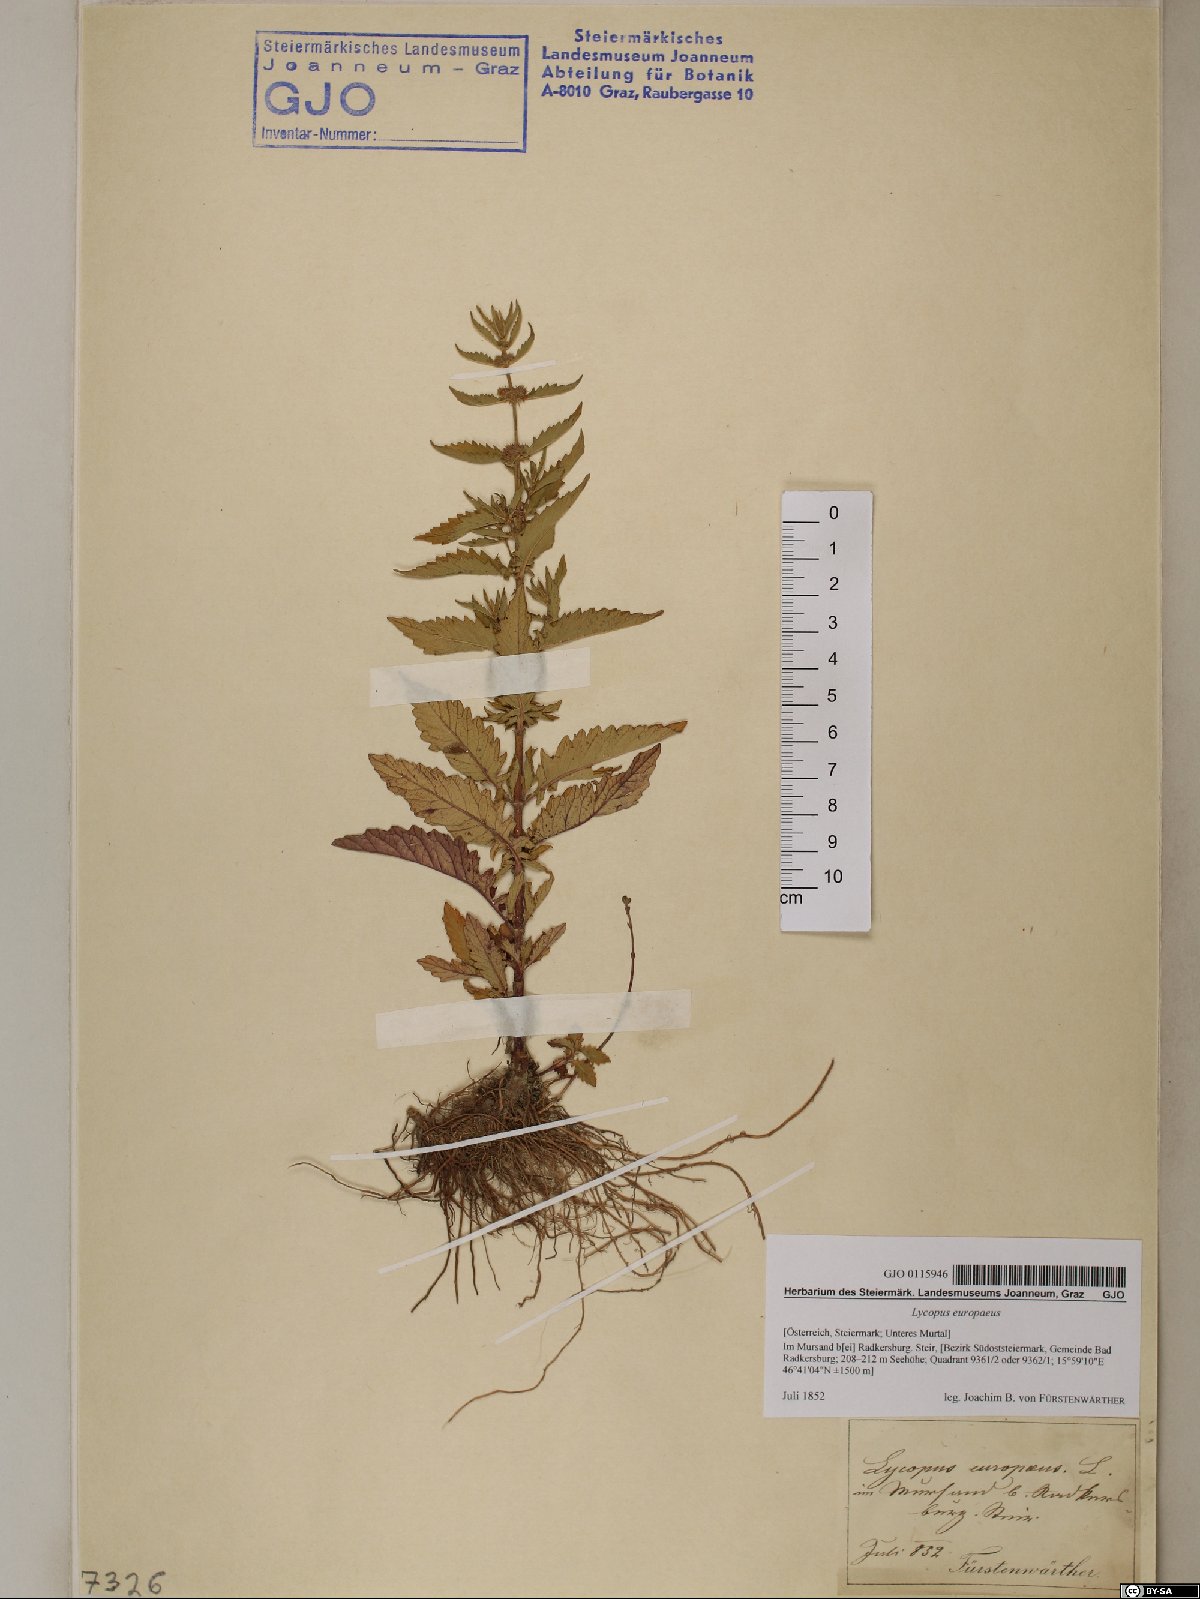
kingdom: Plantae
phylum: Tracheophyta
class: Magnoliopsida
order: Lamiales
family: Lamiaceae
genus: Lycopus
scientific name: Lycopus europaeus
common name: European bugleweed
